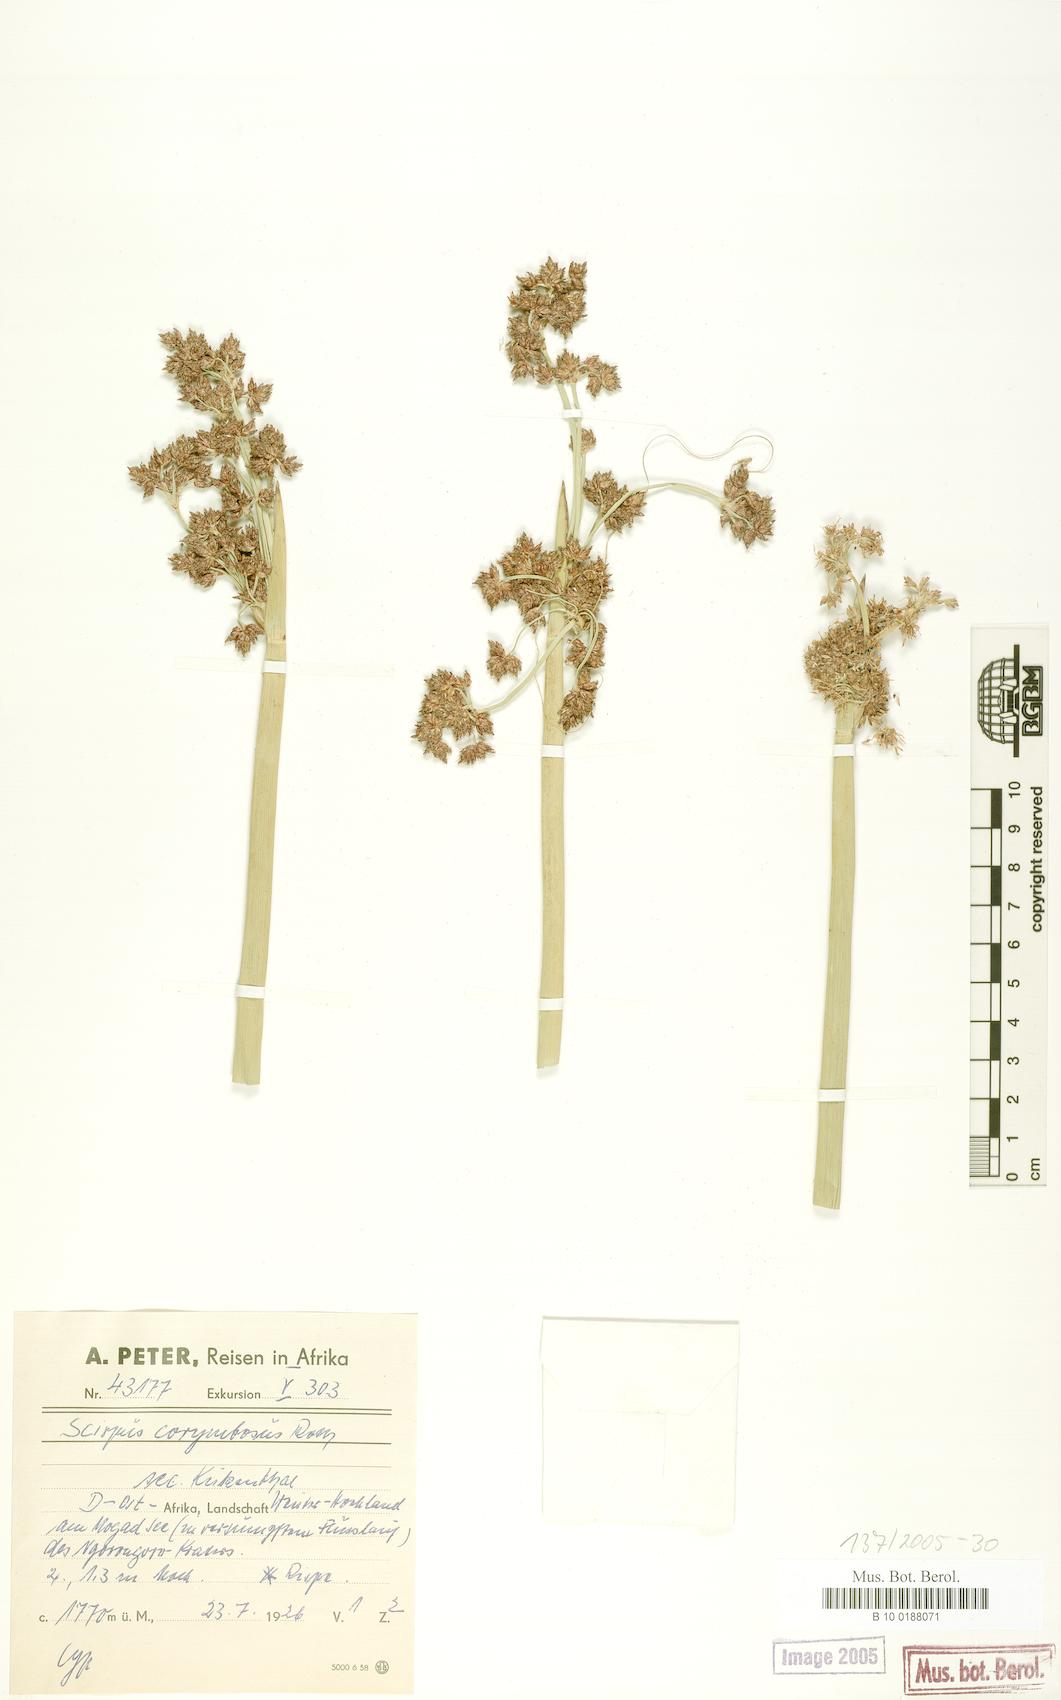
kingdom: Plantae
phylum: Tracheophyta
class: Liliopsida
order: Poales
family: Cyperaceae
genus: Schoenoplectiella
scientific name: Schoenoplectiella brachyceras
